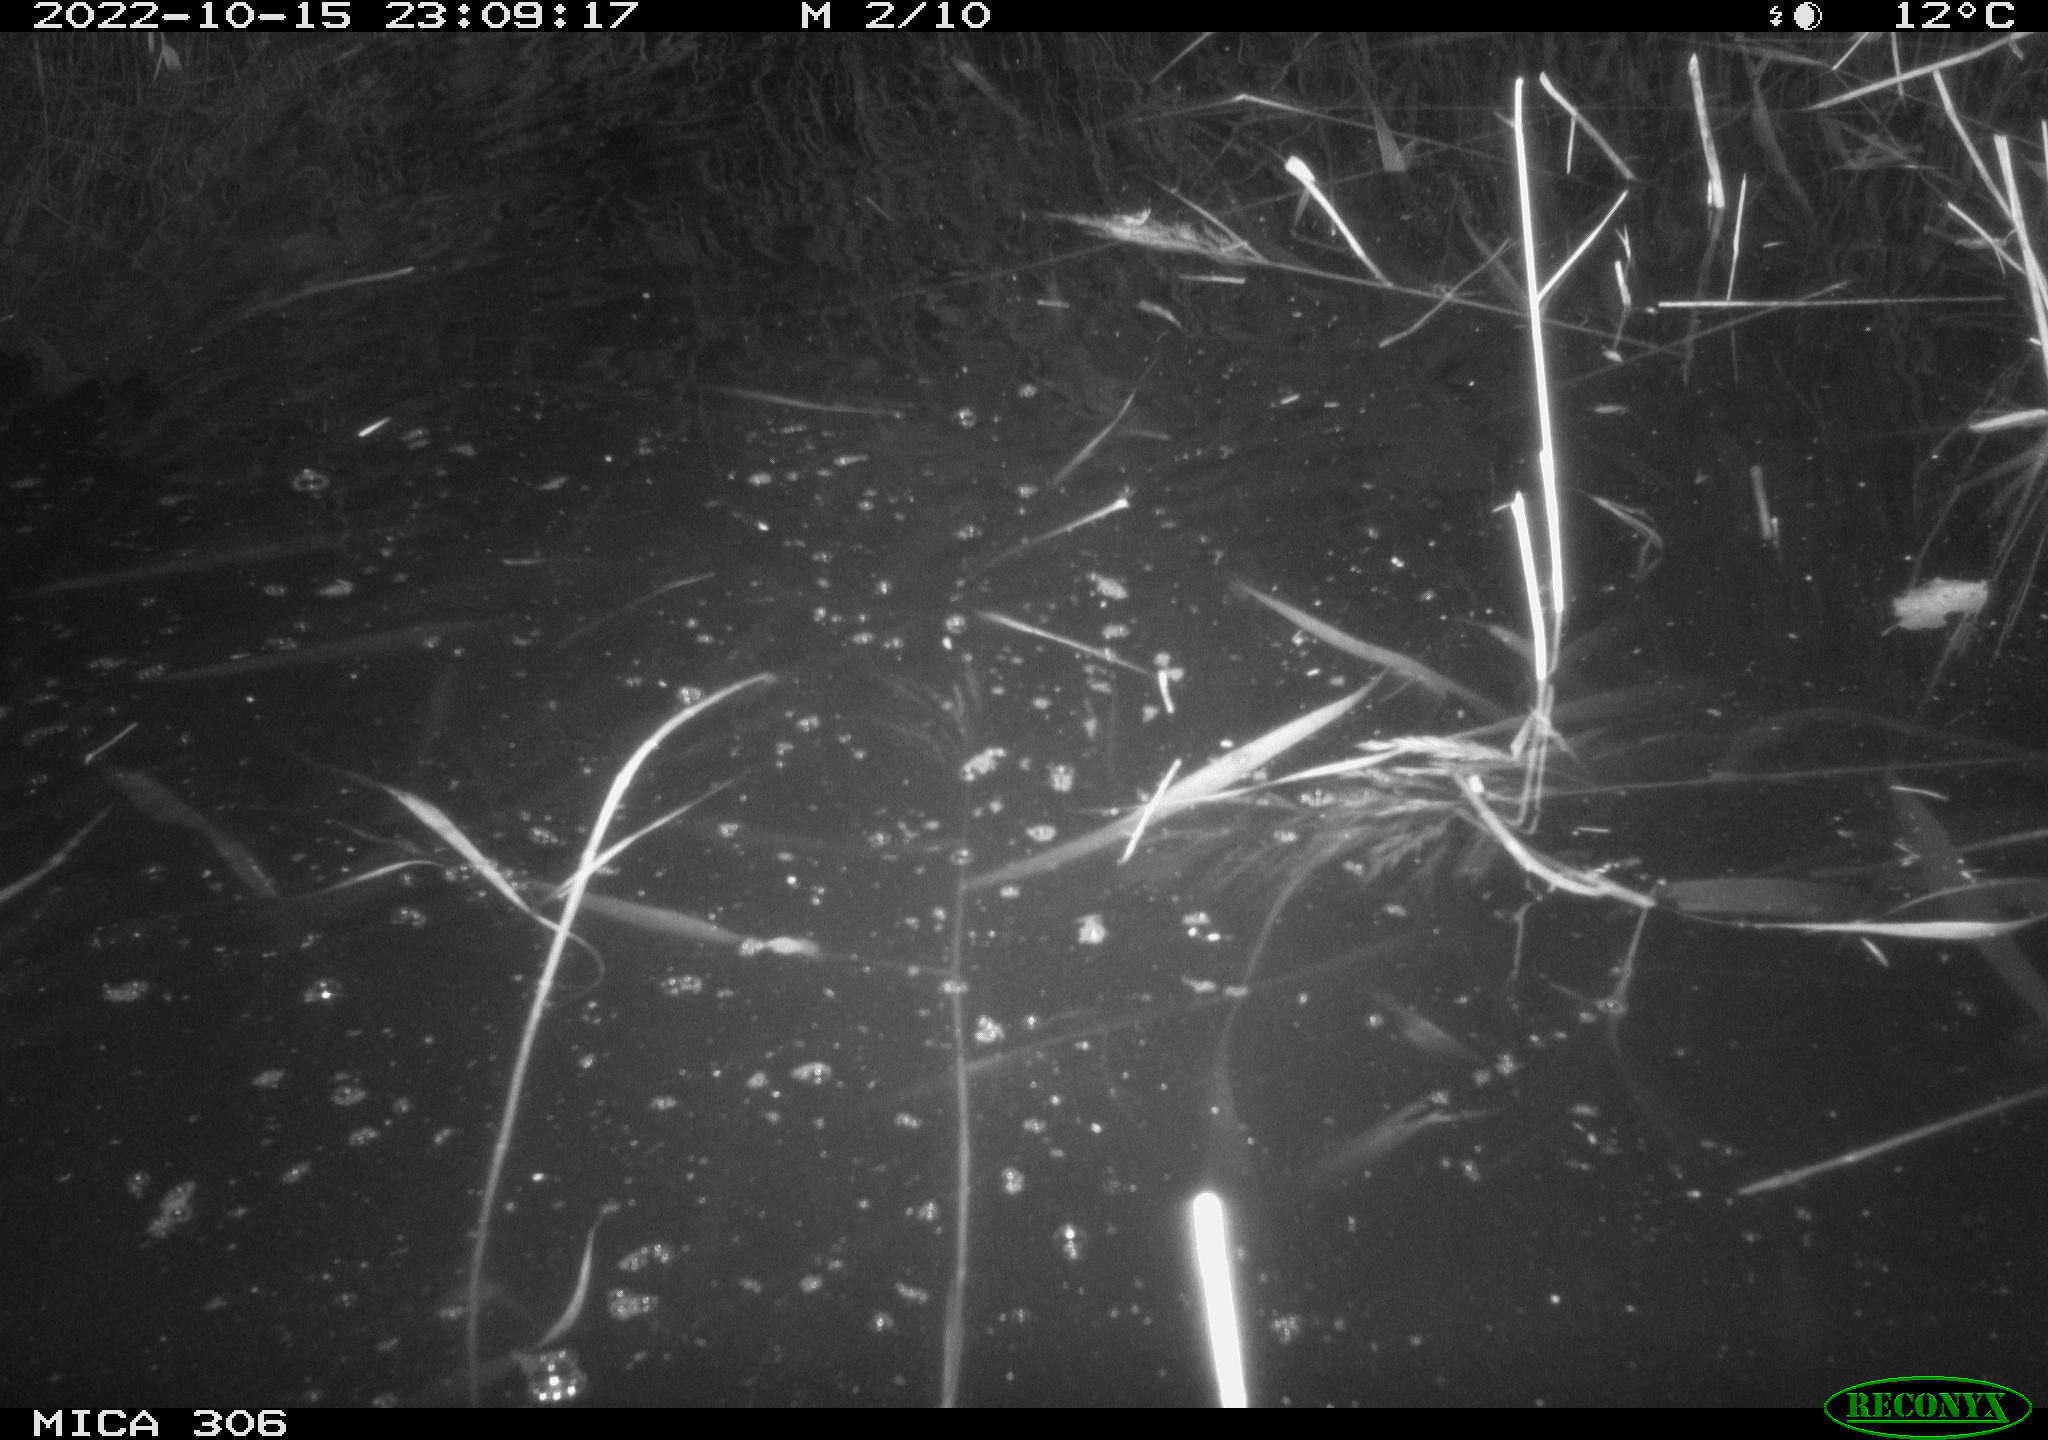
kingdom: Animalia
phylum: Chordata
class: Mammalia
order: Rodentia
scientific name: Rodentia
